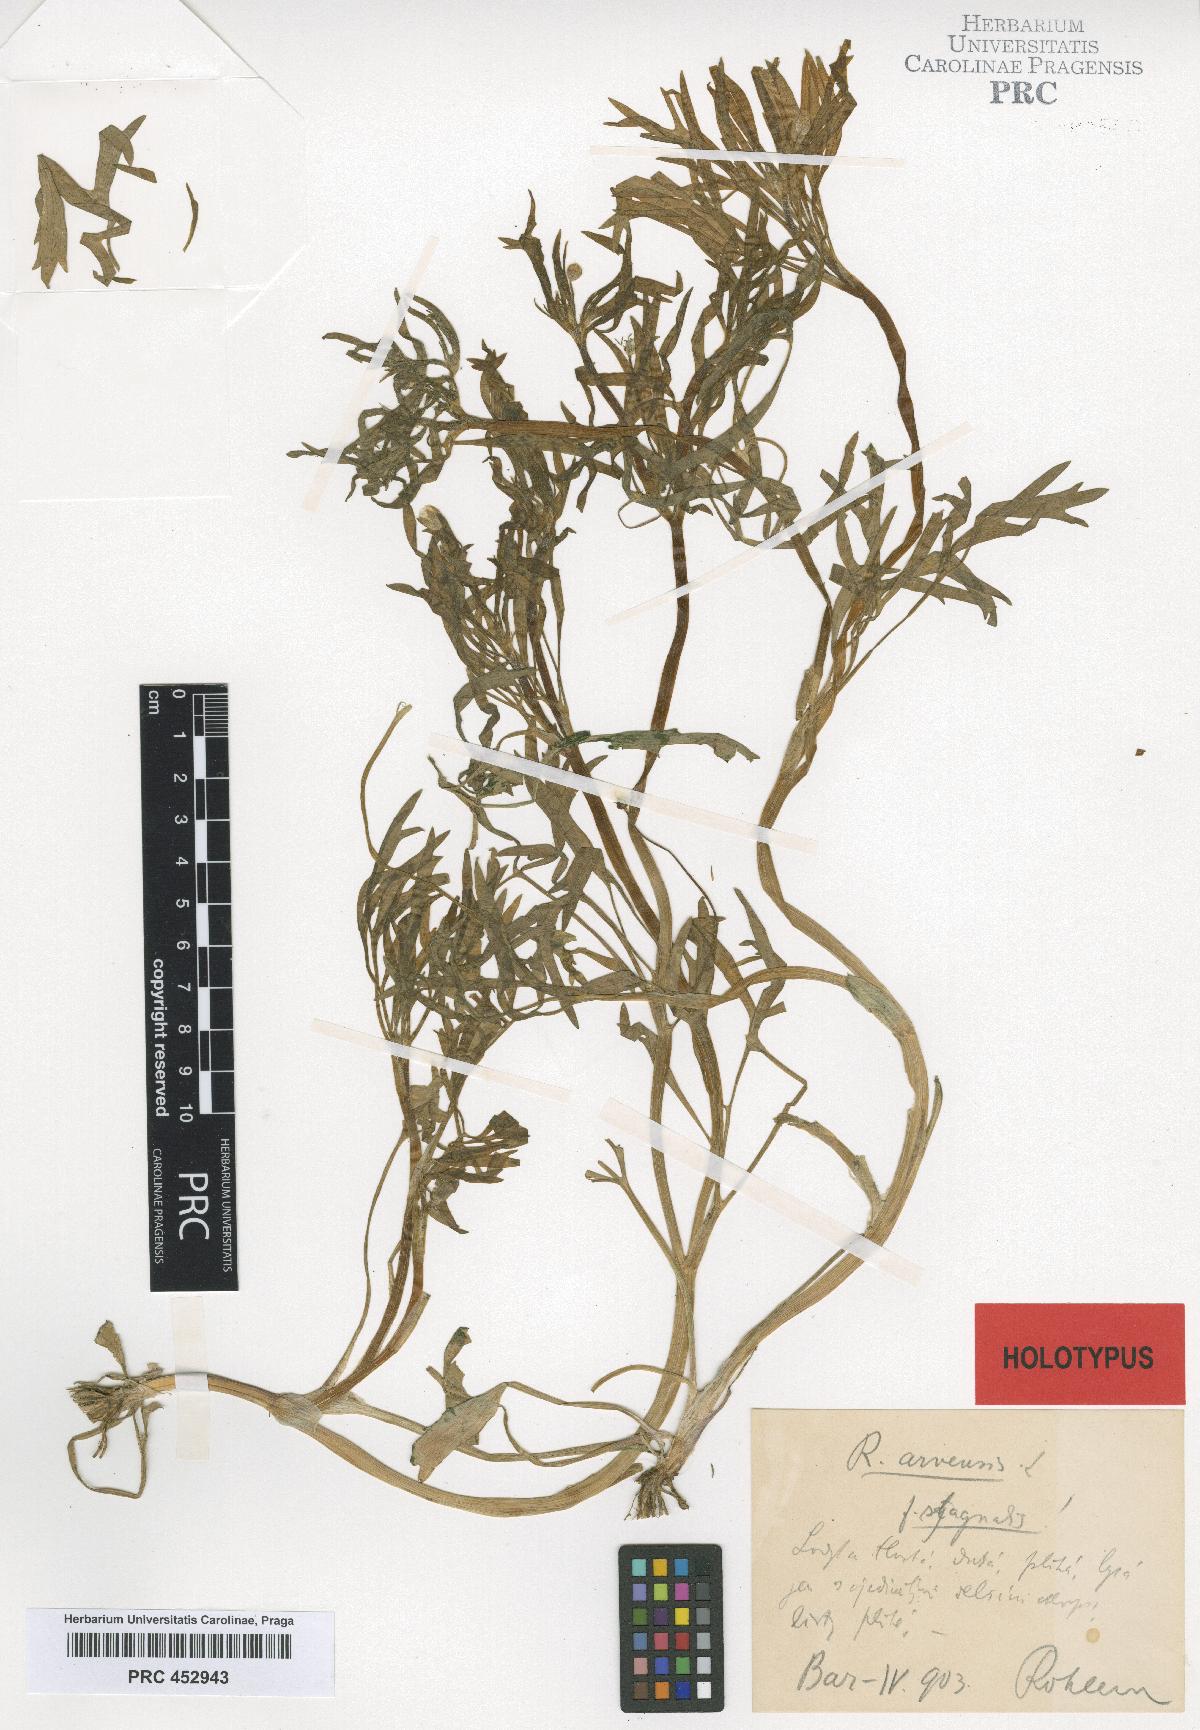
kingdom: Plantae
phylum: Tracheophyta
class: Magnoliopsida
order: Ranunculales
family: Ranunculaceae
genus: Ranunculus
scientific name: Ranunculus arvensis
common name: Corn buttercup
